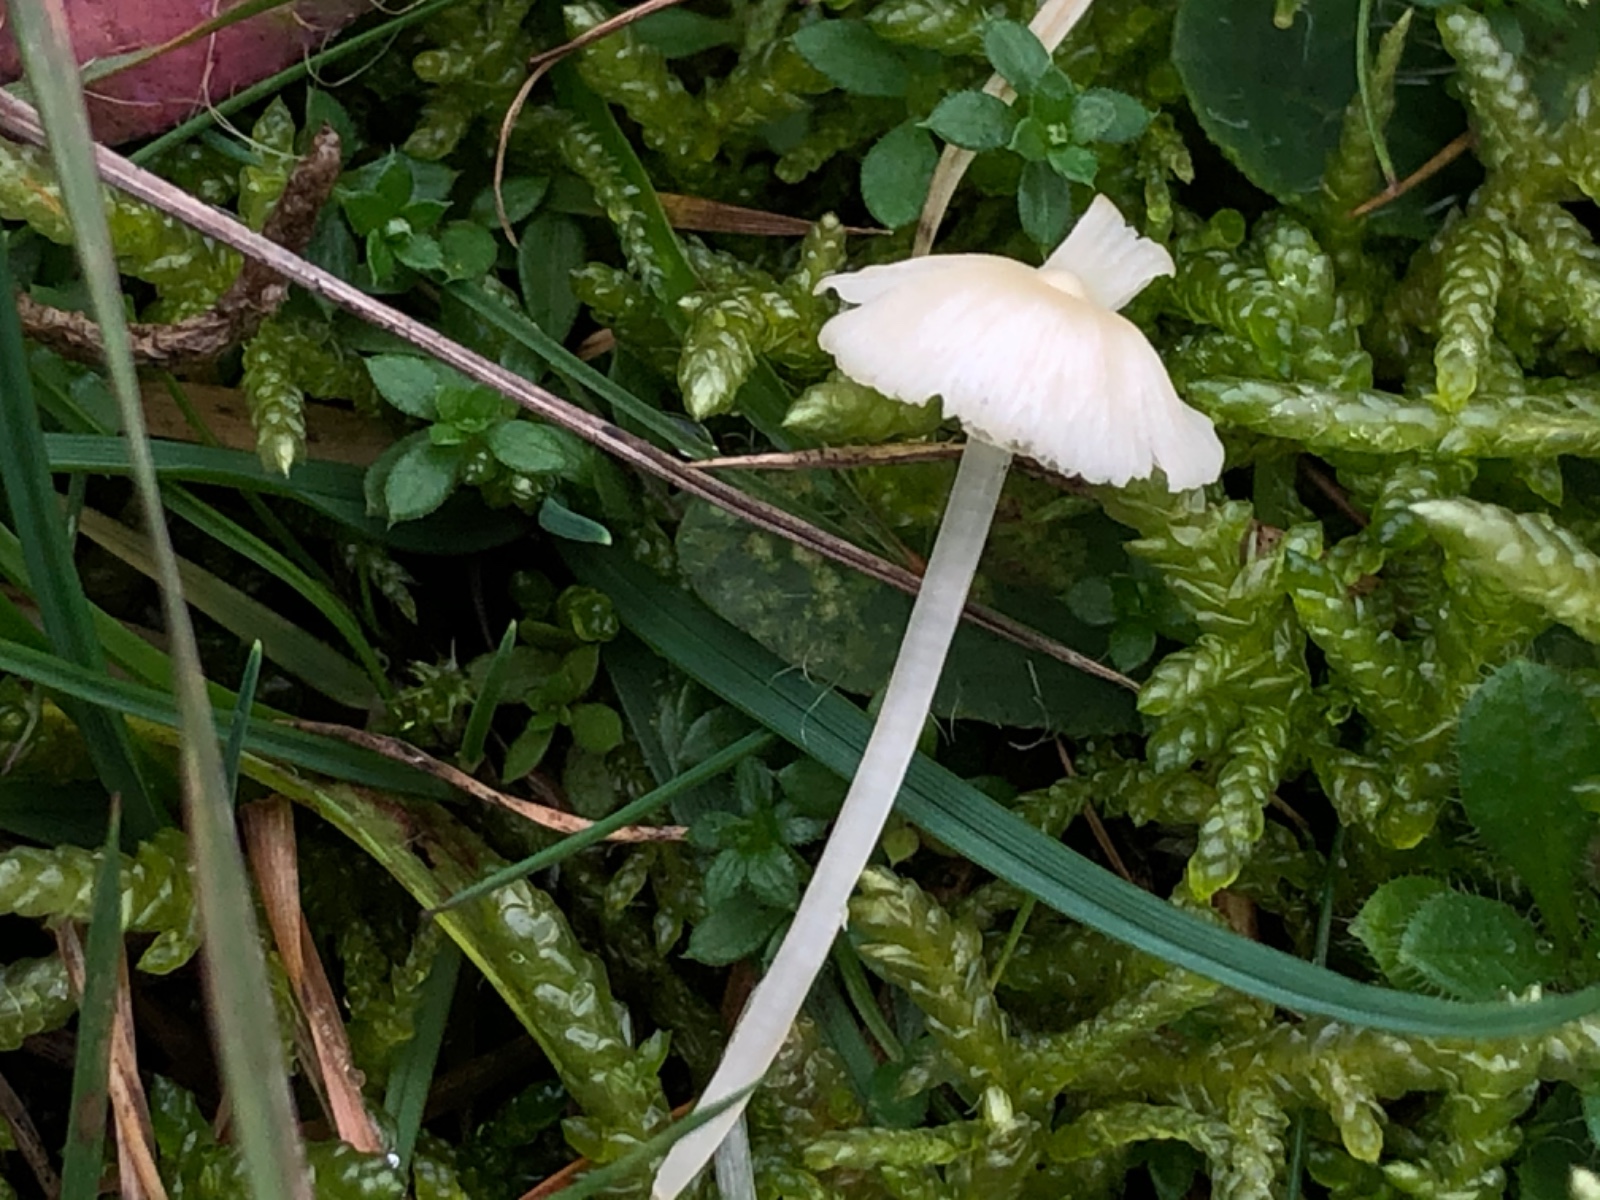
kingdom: Fungi
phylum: Basidiomycota
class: Agaricomycetes
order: Agaricales
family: Mycenaceae
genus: Atheniella
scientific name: Atheniella flavoalba
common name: gulhvid huesvamp
